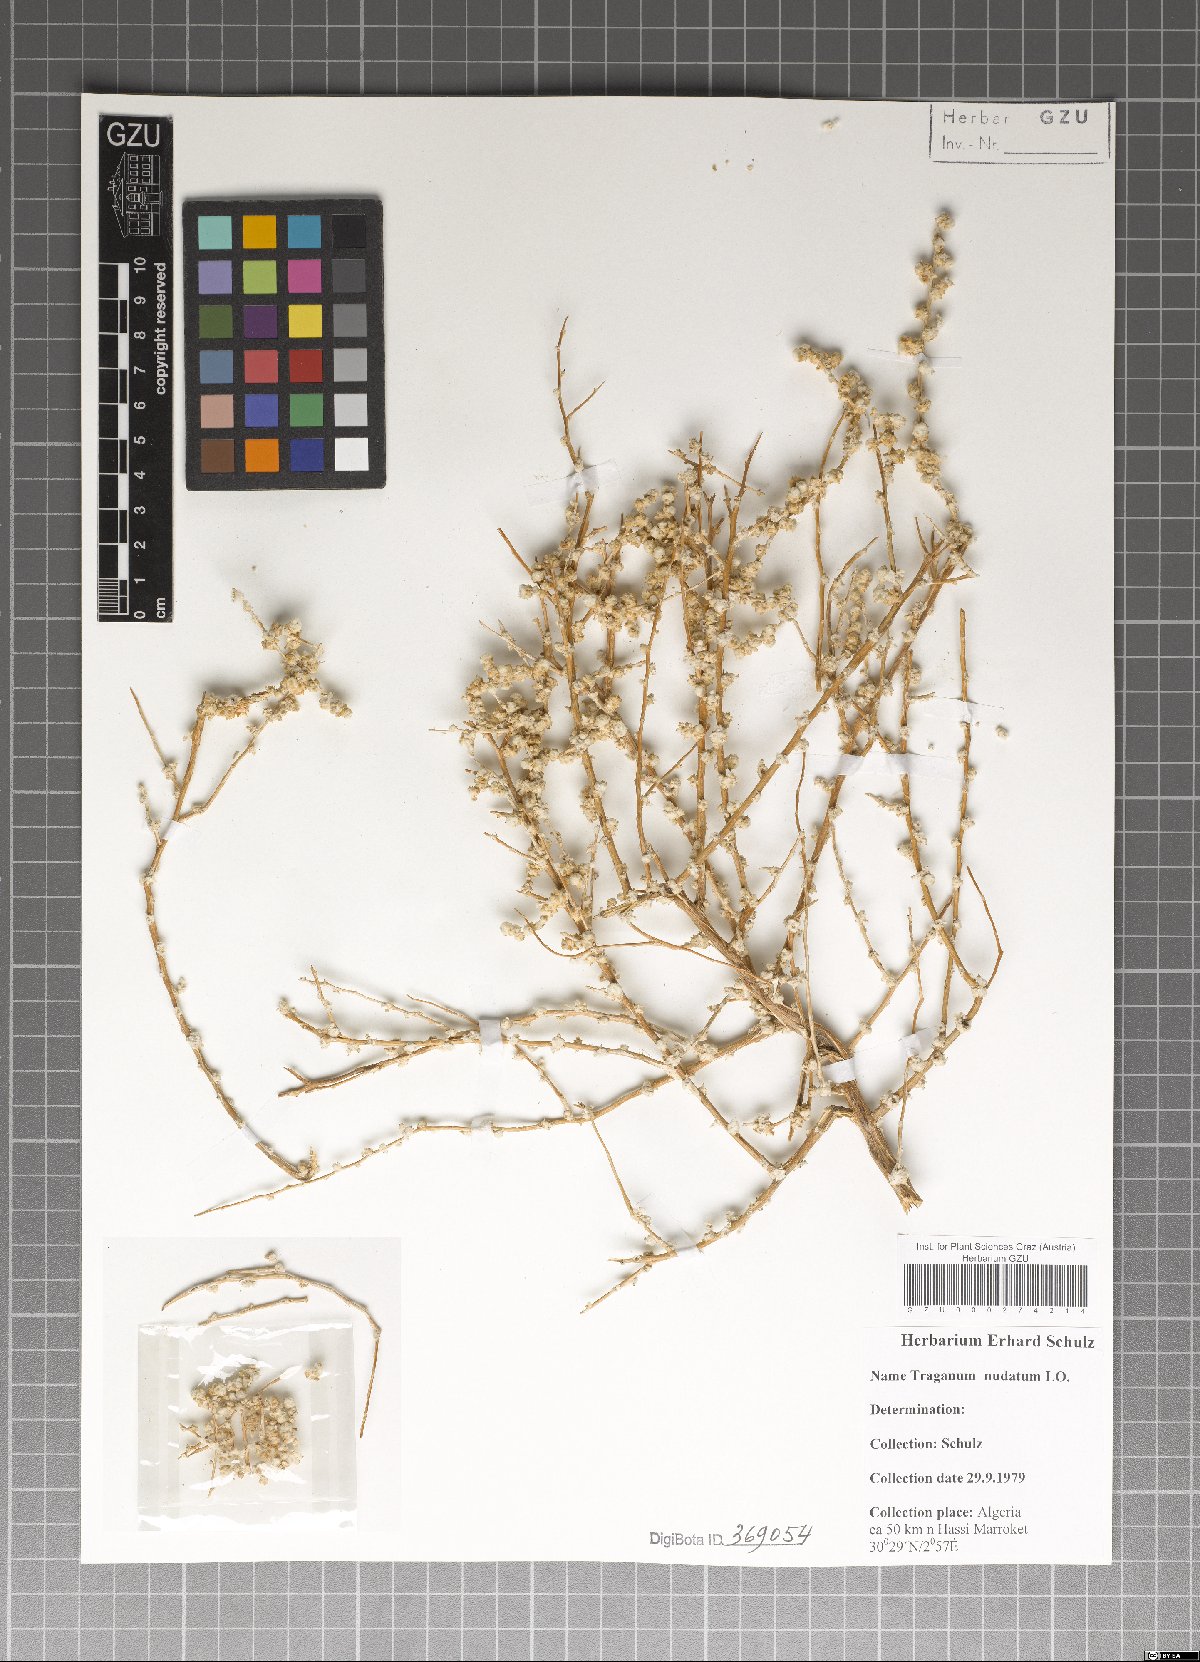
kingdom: Plantae
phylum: Tracheophyta
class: Magnoliopsida
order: Caryophyllales
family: Amaranthaceae
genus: Traganum
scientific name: Traganum nudatum
